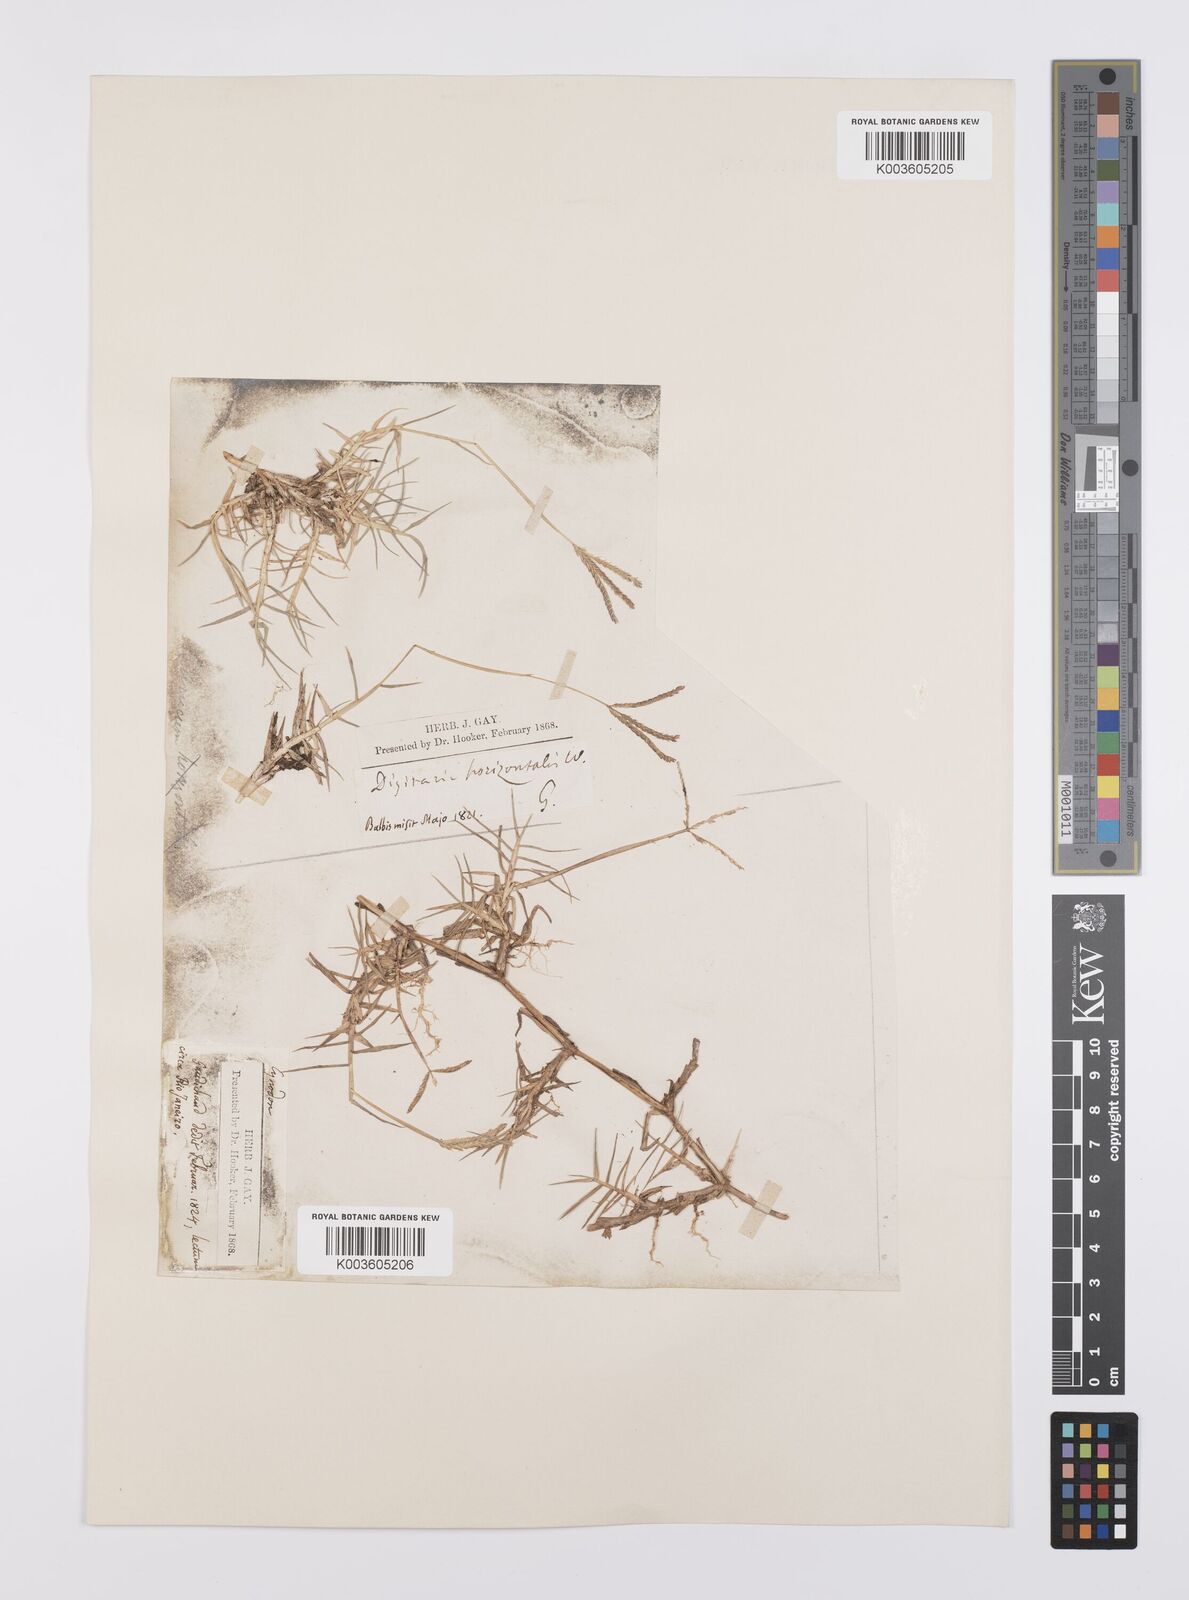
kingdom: Plantae
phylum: Tracheophyta
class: Liliopsida
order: Poales
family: Poaceae
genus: Cynodon
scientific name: Cynodon dactylon
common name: Bermuda grass
